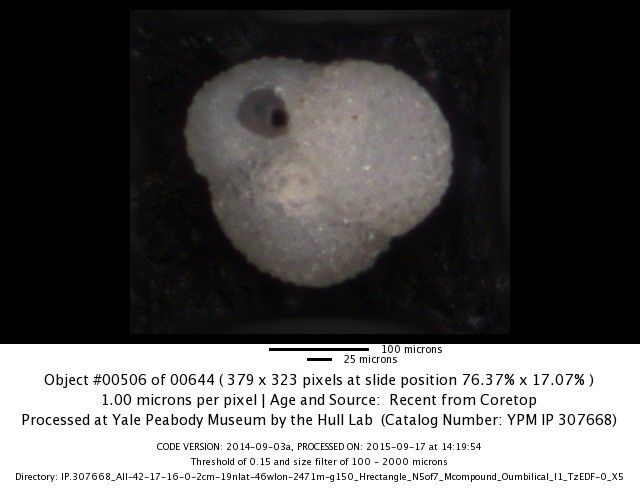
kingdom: Chromista
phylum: Foraminifera
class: Globothalamea
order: Rotaliida
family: Globigerinidae
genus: Globigerinoides
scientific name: Globigerinoides ruber
